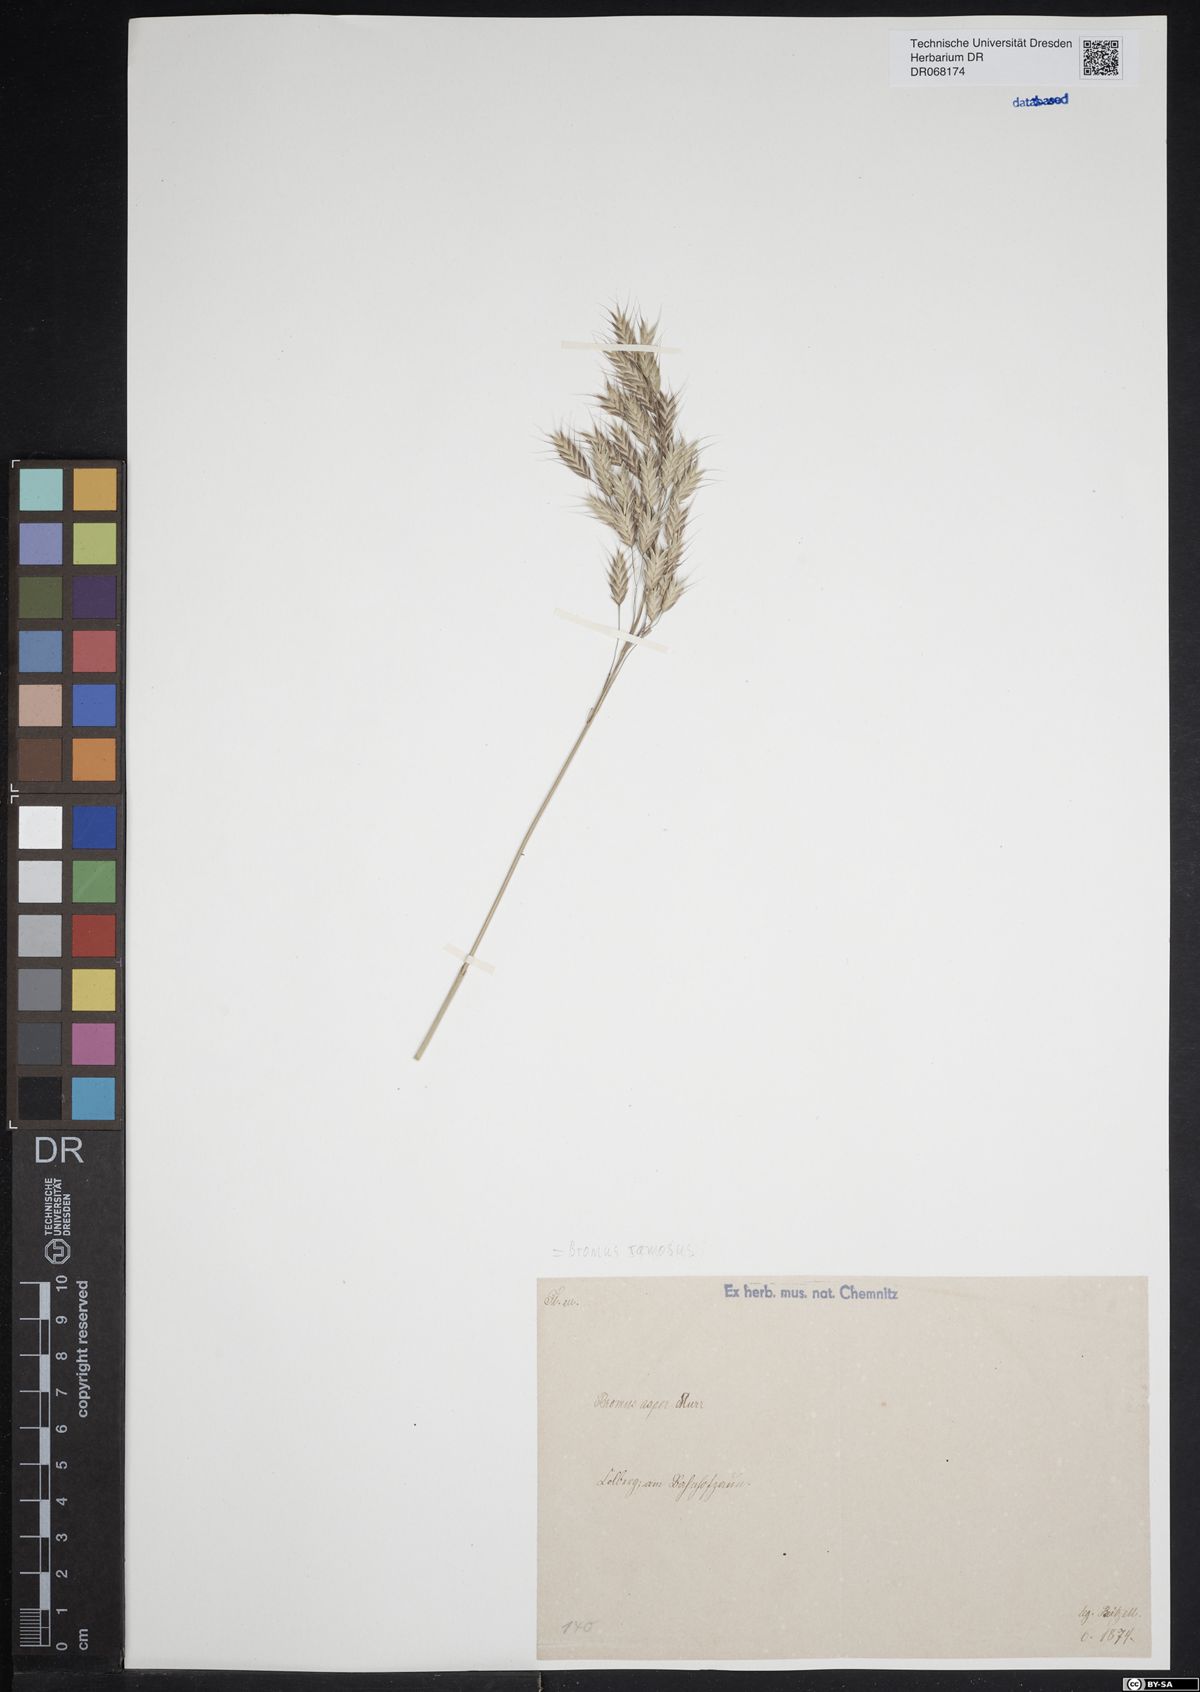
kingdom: Plantae
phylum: Tracheophyta
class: Liliopsida
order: Poales
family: Poaceae
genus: Bromus
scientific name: Bromus ramosus
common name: Hairy brome
